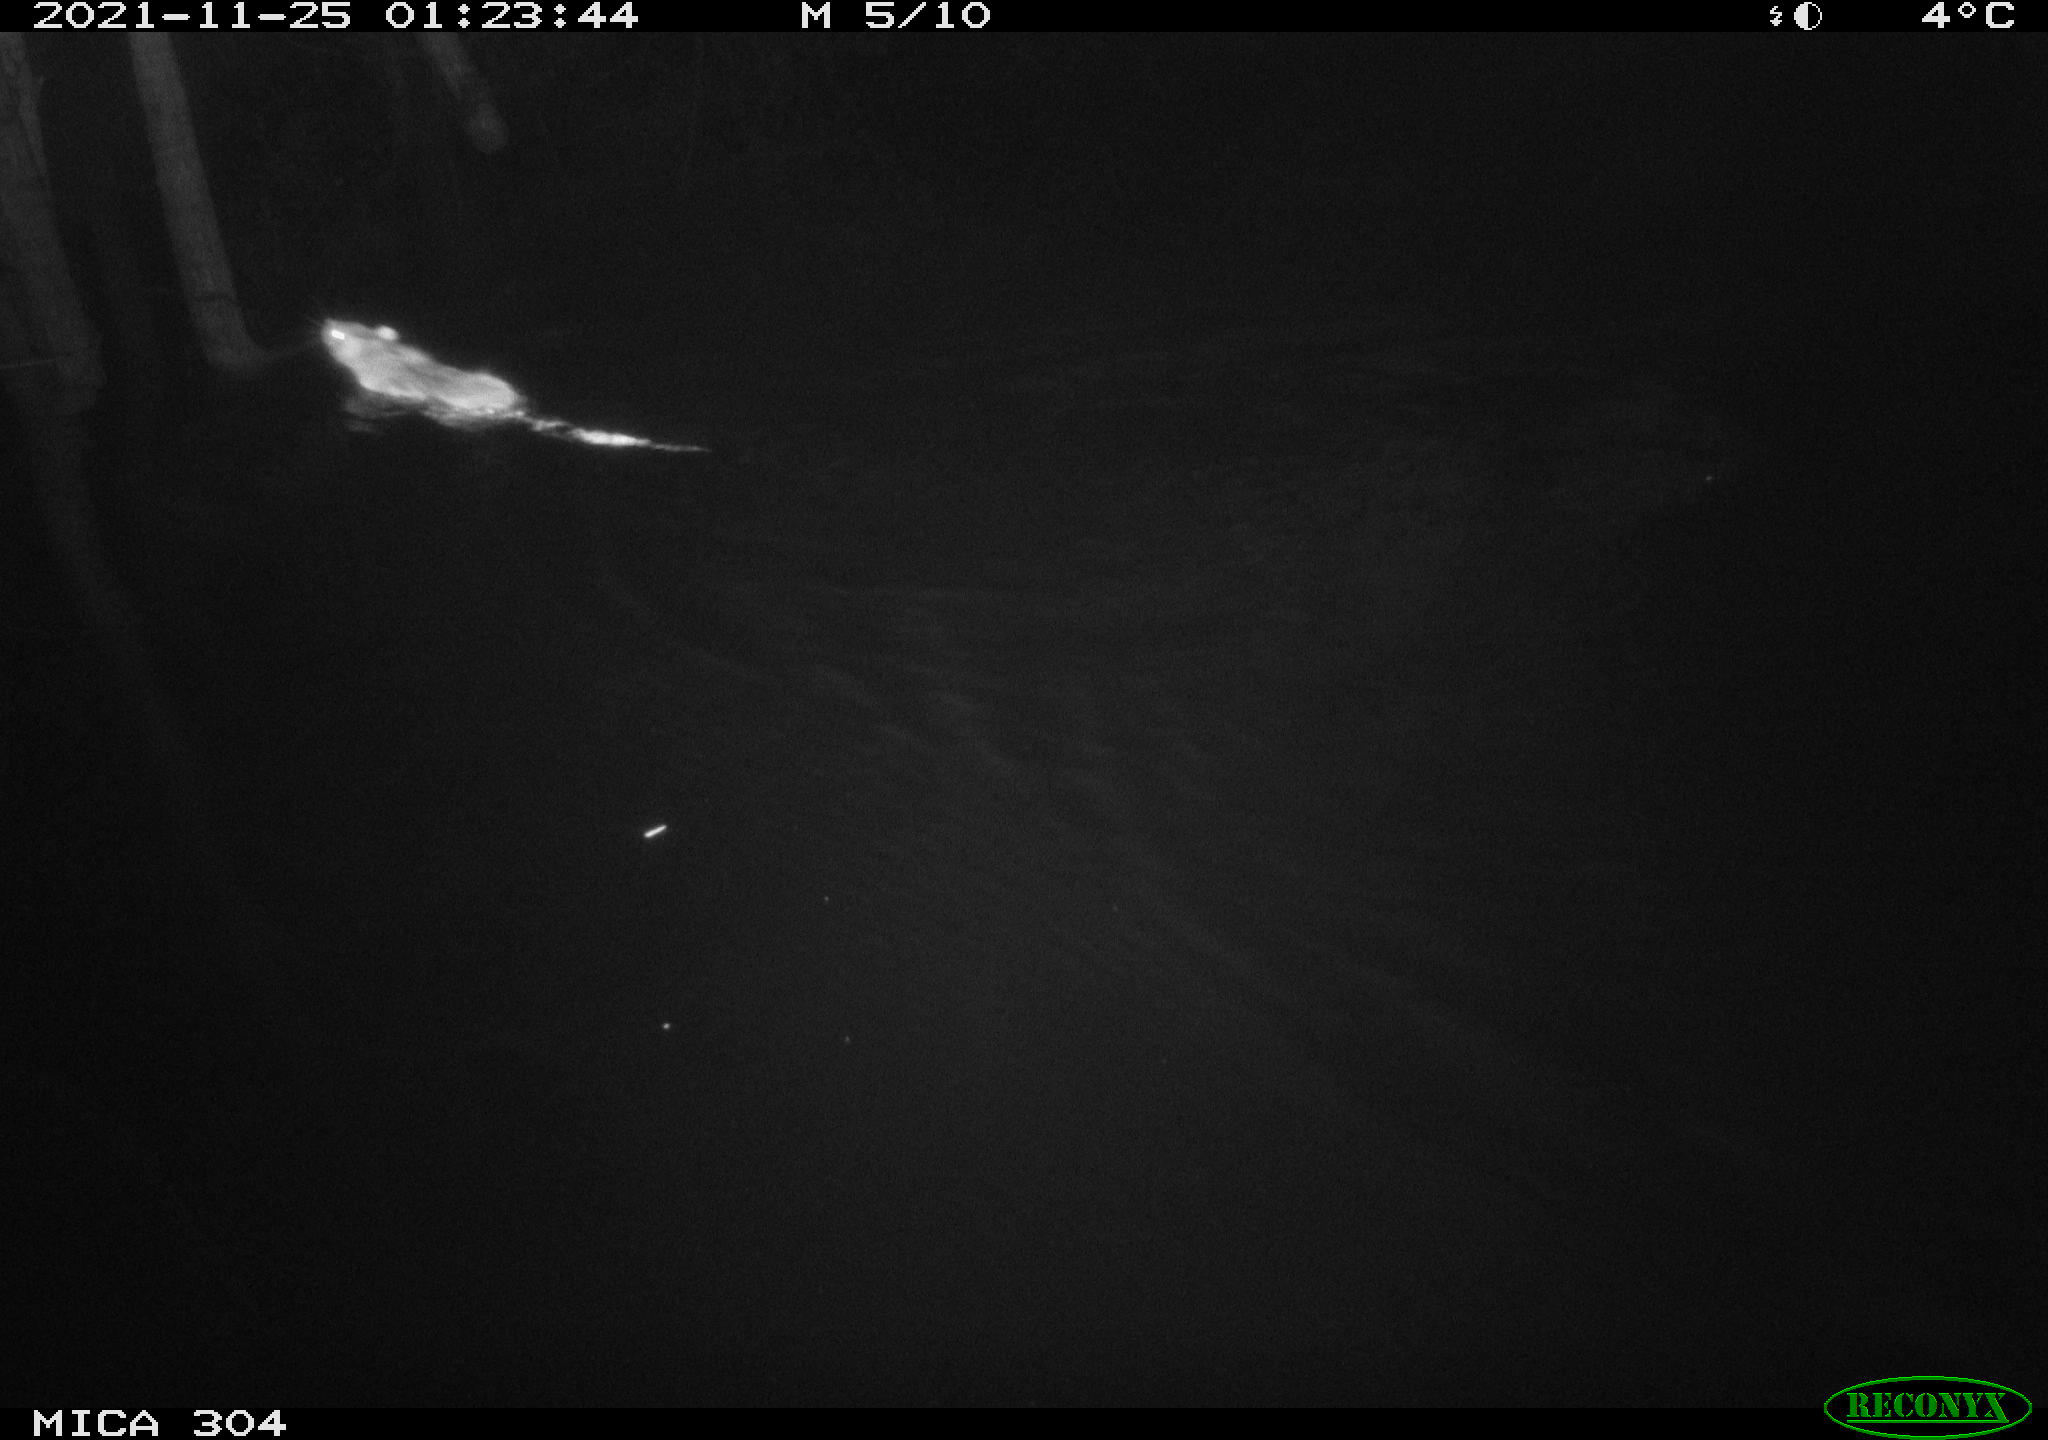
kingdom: Animalia
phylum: Chordata
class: Mammalia
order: Rodentia
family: Muridae
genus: Rattus
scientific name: Rattus norvegicus
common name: Brown rat
